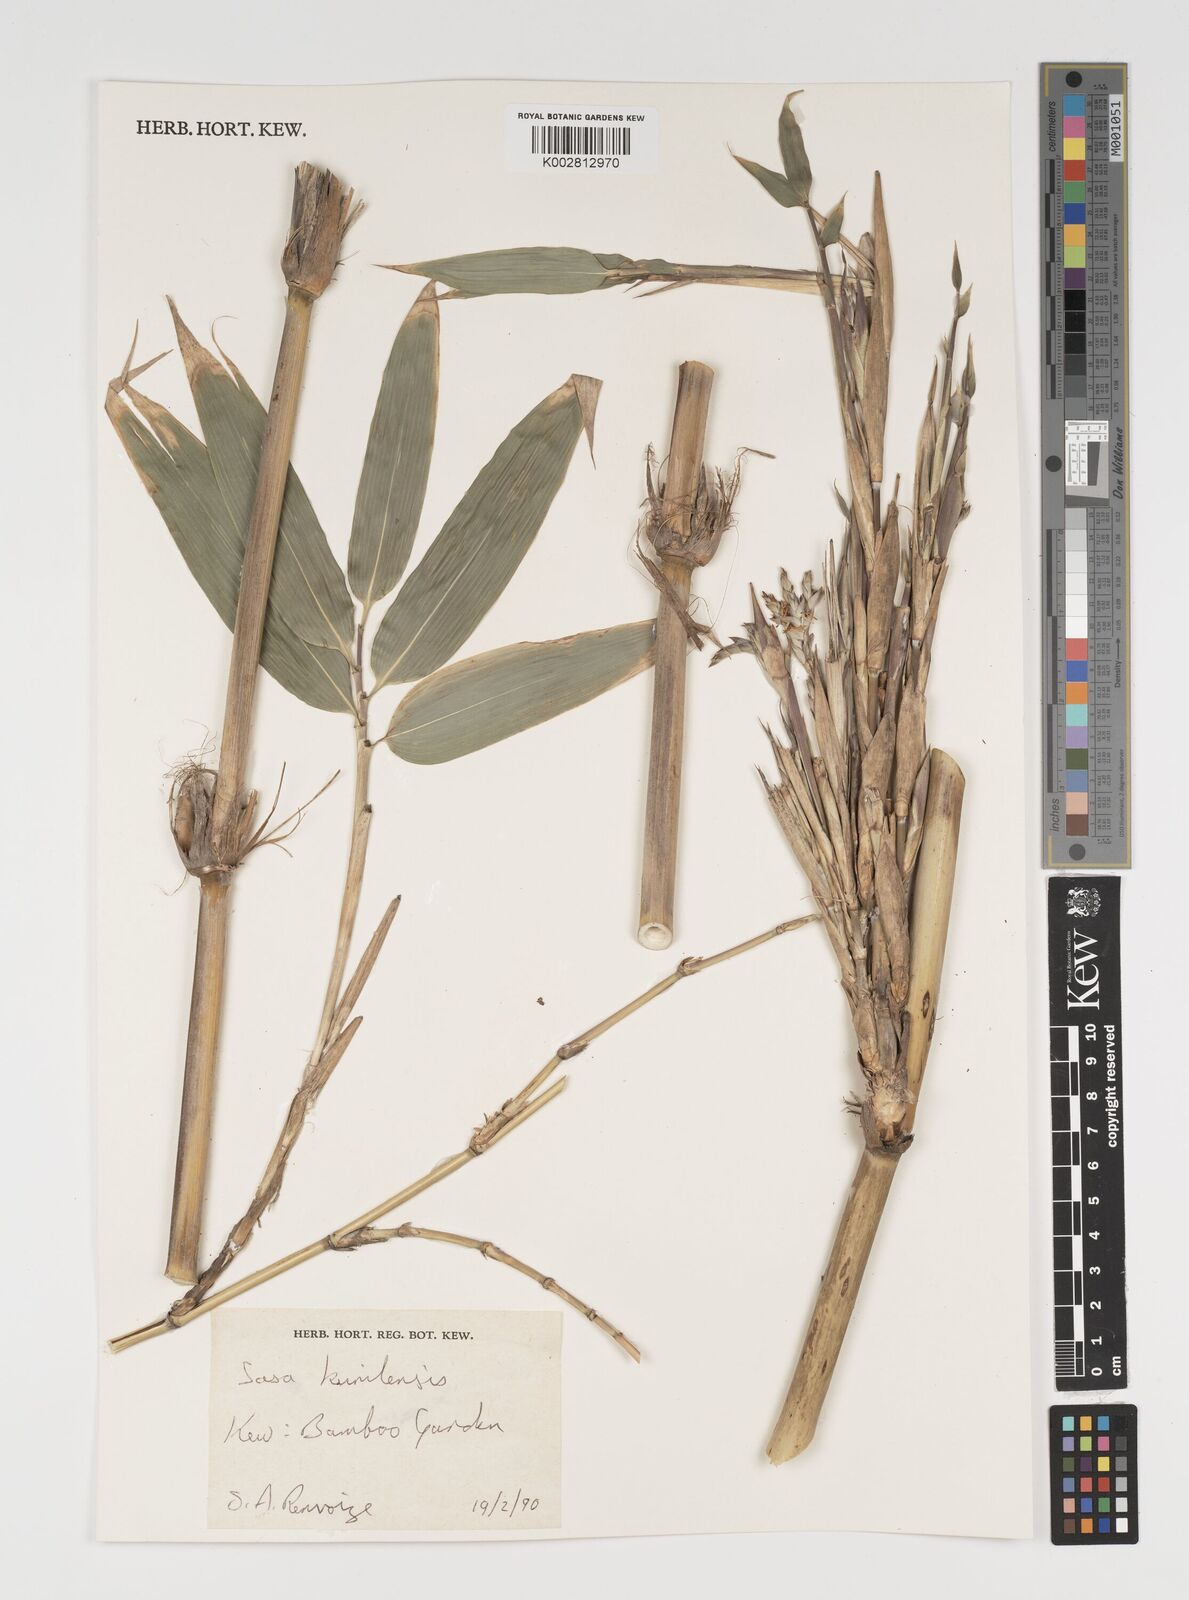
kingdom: Plantae
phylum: Tracheophyta
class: Liliopsida
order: Poales
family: Poaceae
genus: Sasa
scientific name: Sasa kurilensis
